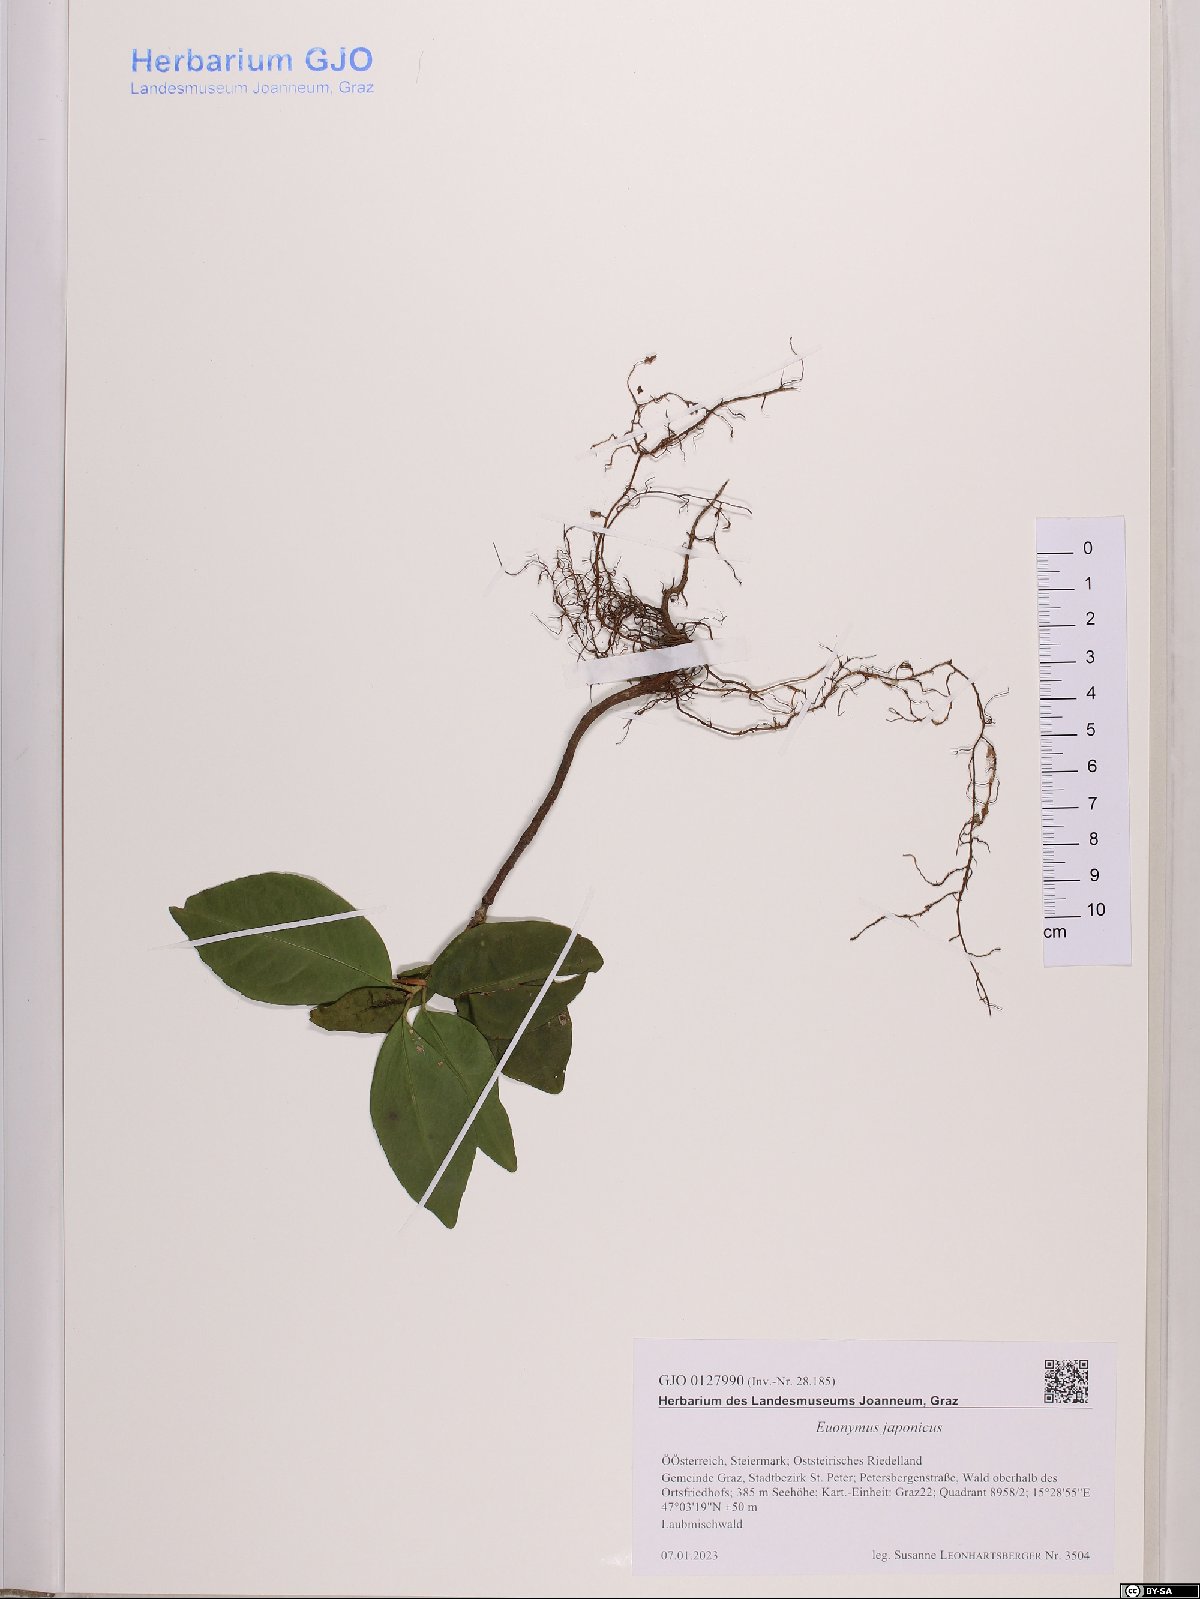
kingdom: Plantae
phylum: Tracheophyta
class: Magnoliopsida
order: Celastrales
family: Celastraceae
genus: Euonymus
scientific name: Euonymus fortunei
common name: Climbing euonymus
